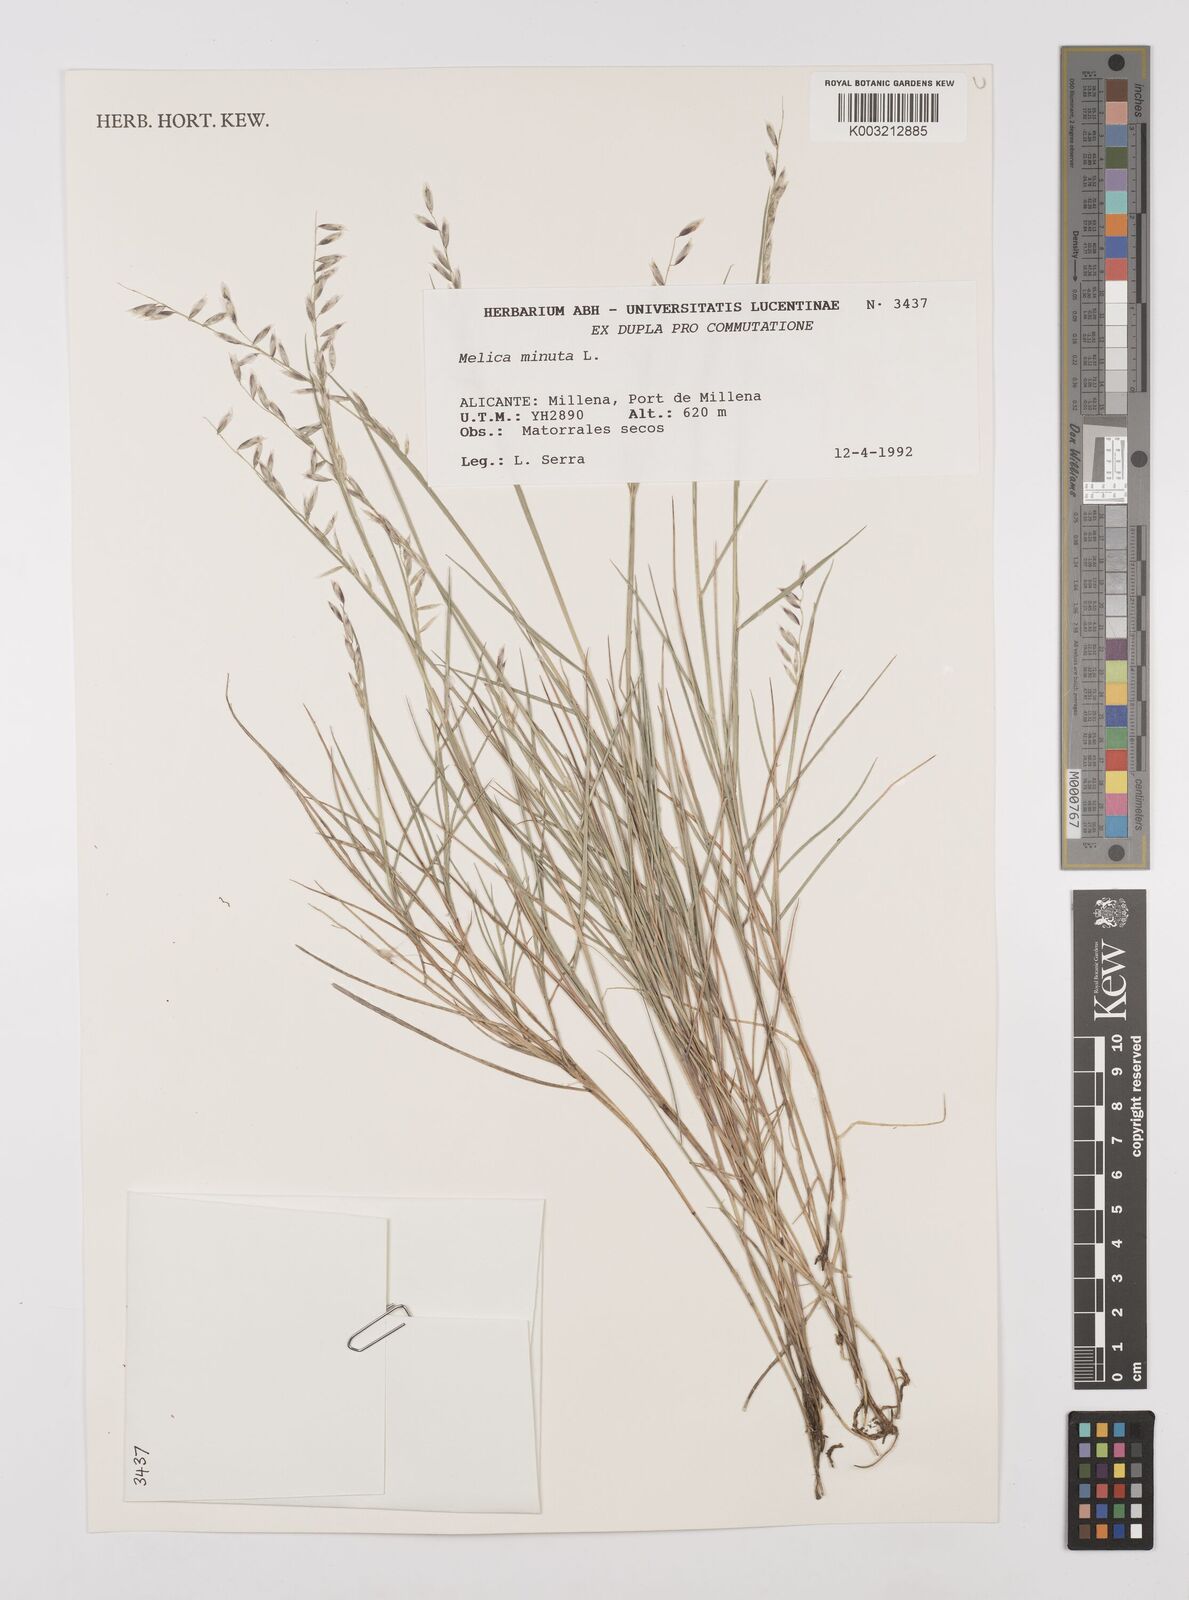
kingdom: Plantae
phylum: Tracheophyta
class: Liliopsida
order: Poales
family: Poaceae
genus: Melica
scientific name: Melica minuta
